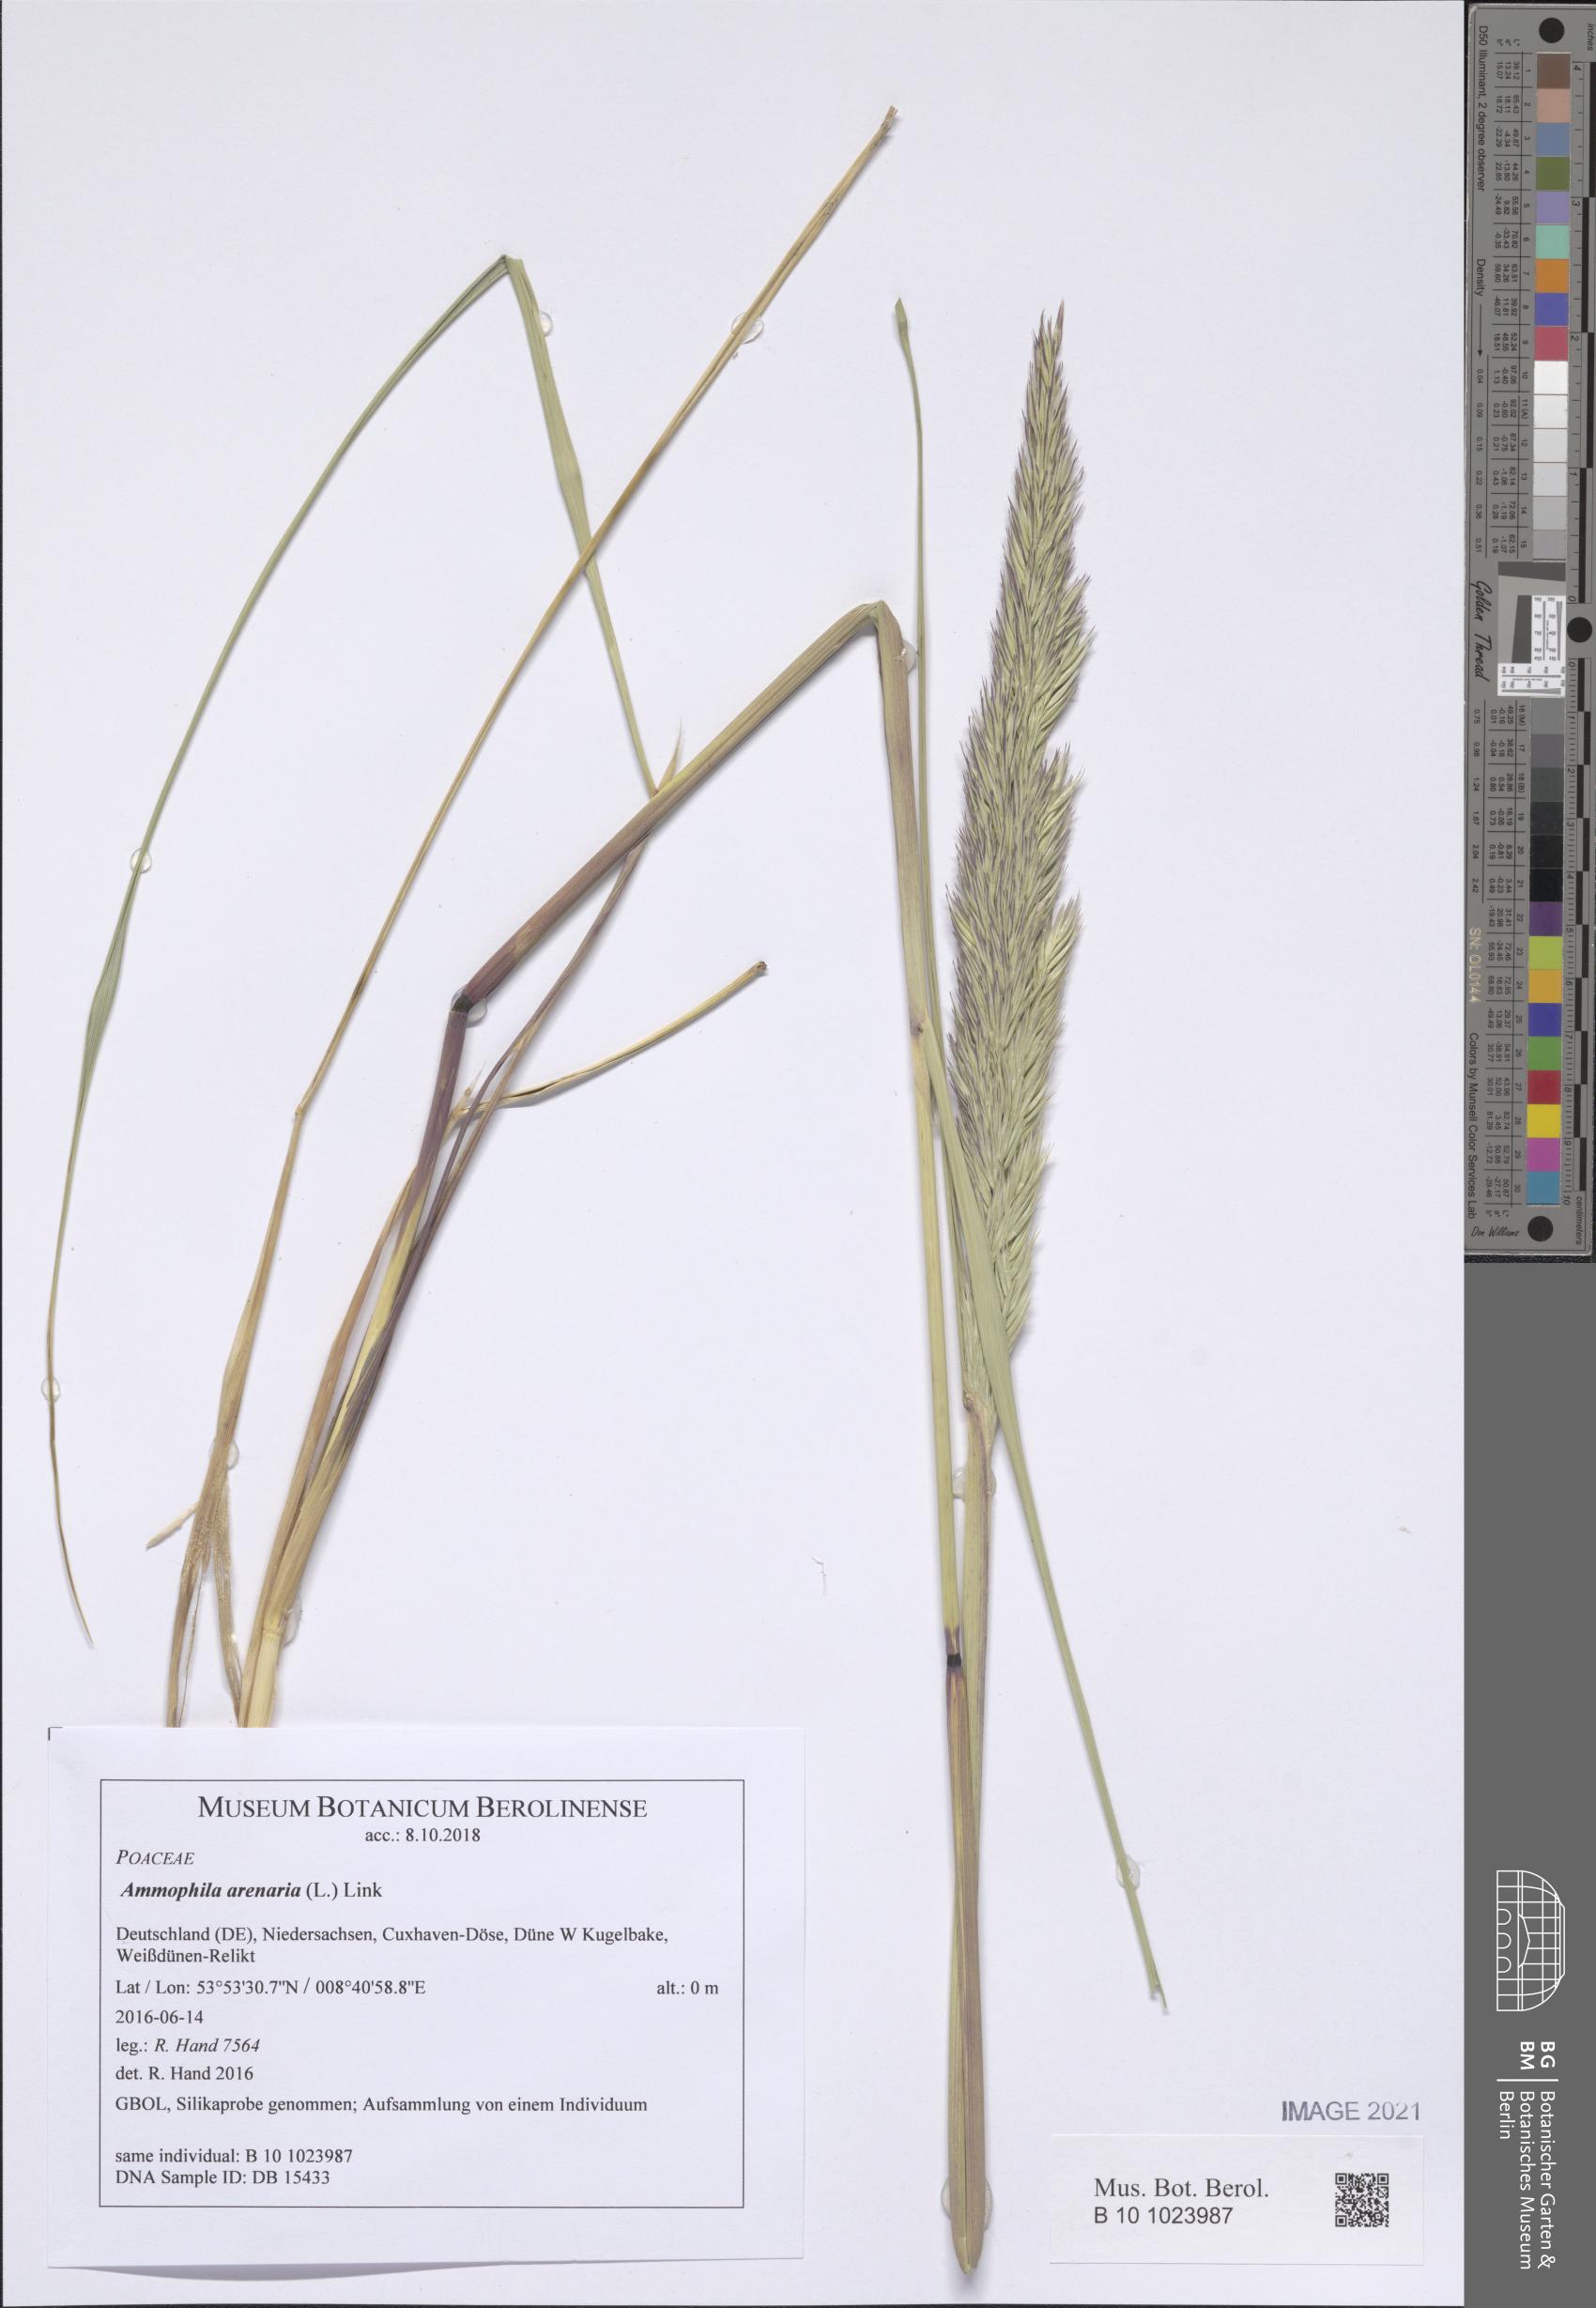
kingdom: Plantae
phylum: Tracheophyta
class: Liliopsida
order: Poales
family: Poaceae
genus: Calamagrostis
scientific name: Calamagrostis arenaria
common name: European beachgrass
